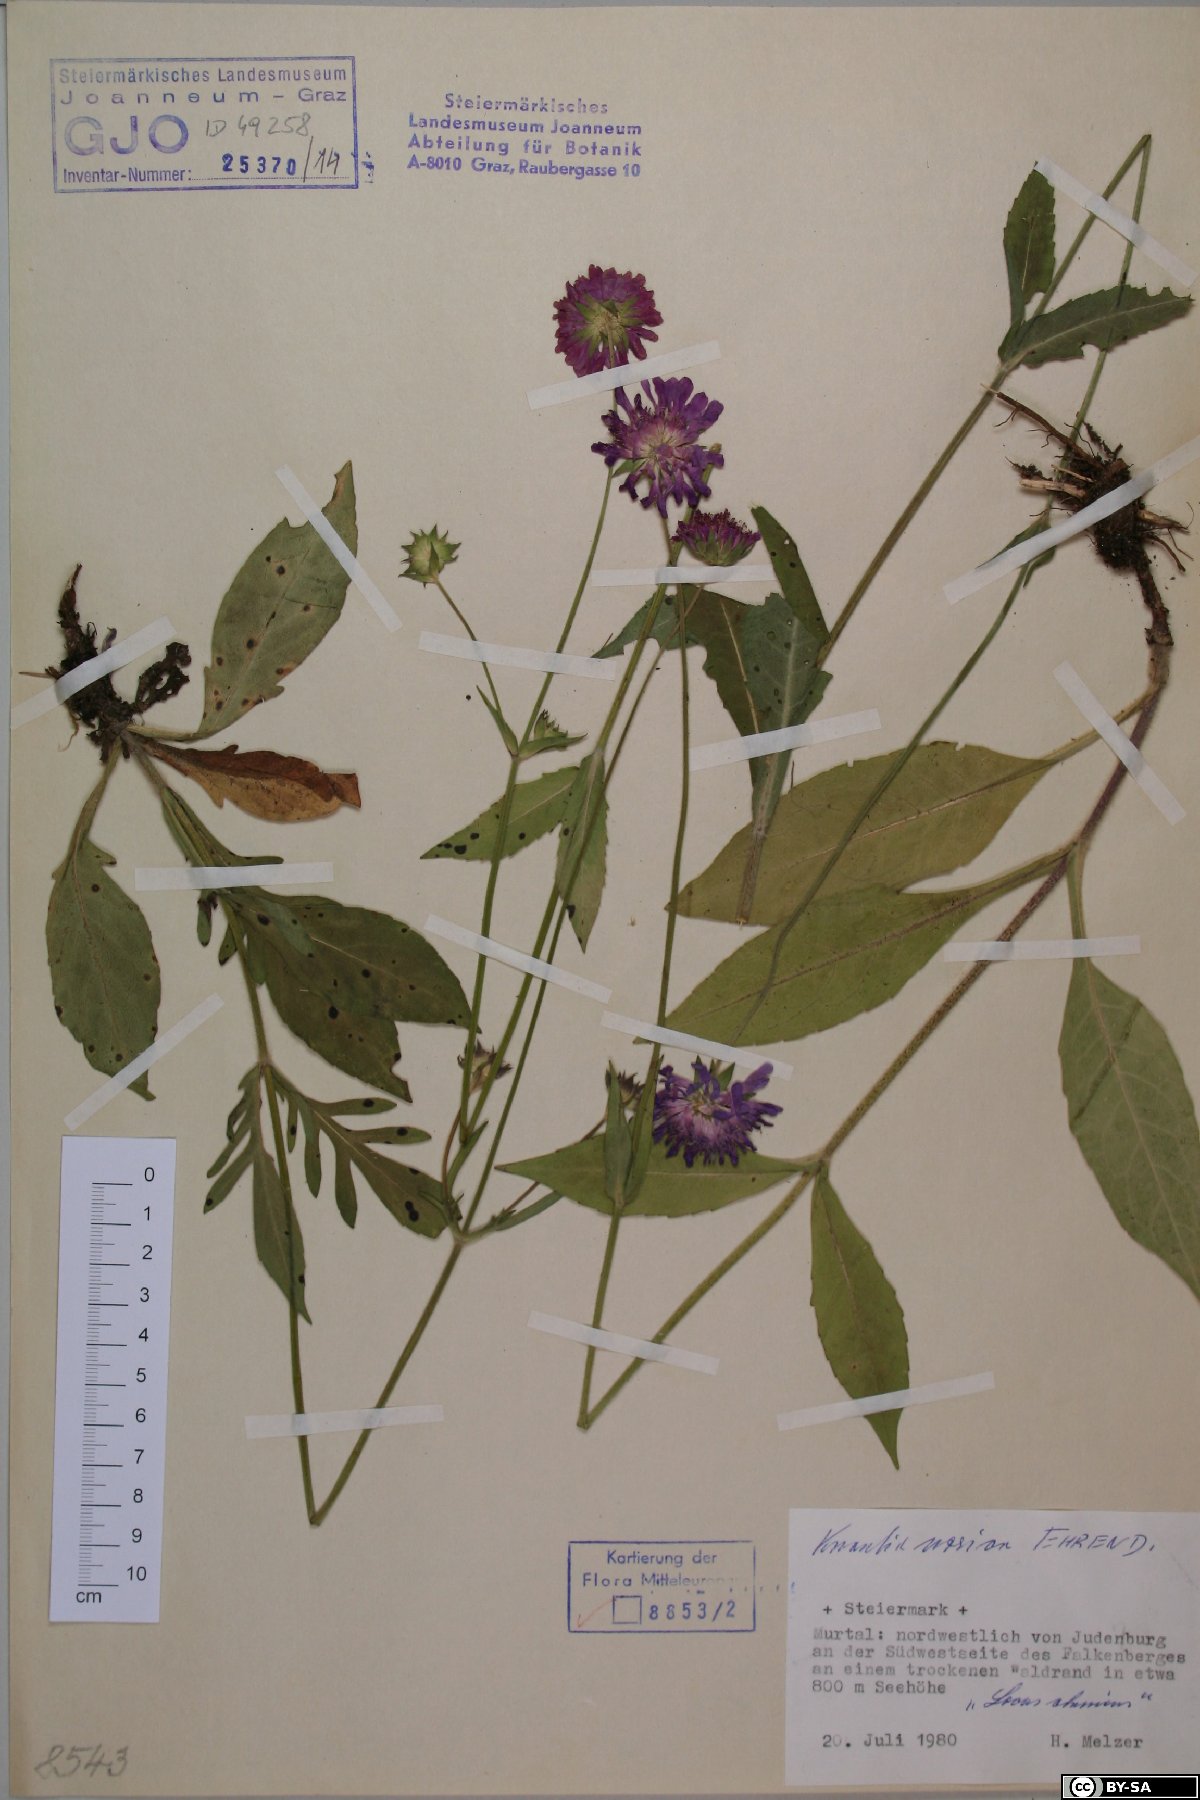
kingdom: Plantae
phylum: Tracheophyta
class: Magnoliopsida
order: Dipsacales
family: Caprifoliaceae
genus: Knautia
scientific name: Knautia norica
